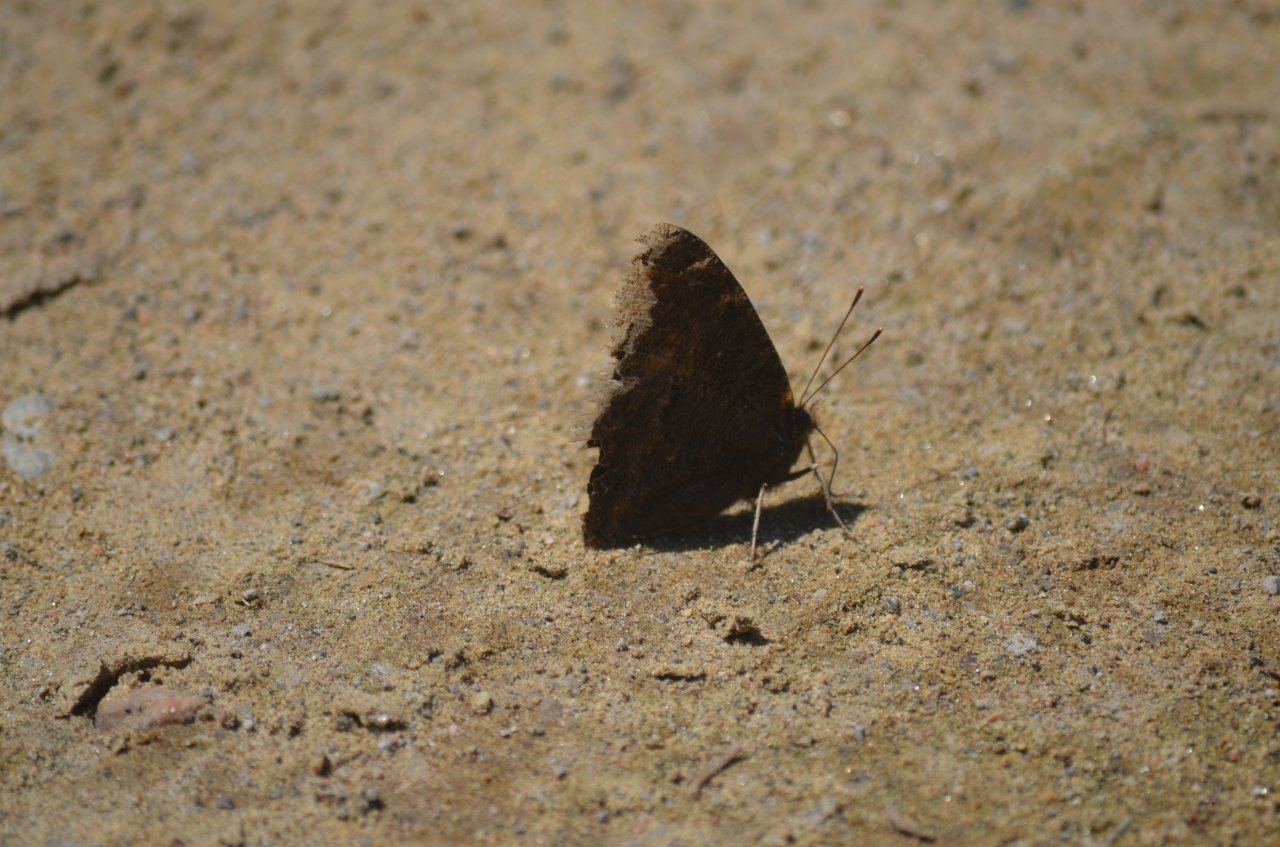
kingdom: Animalia
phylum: Arthropoda
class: Insecta
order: Lepidoptera
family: Nymphalidae
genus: Nymphalis
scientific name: Nymphalis antiopa
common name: Mourning Cloak
